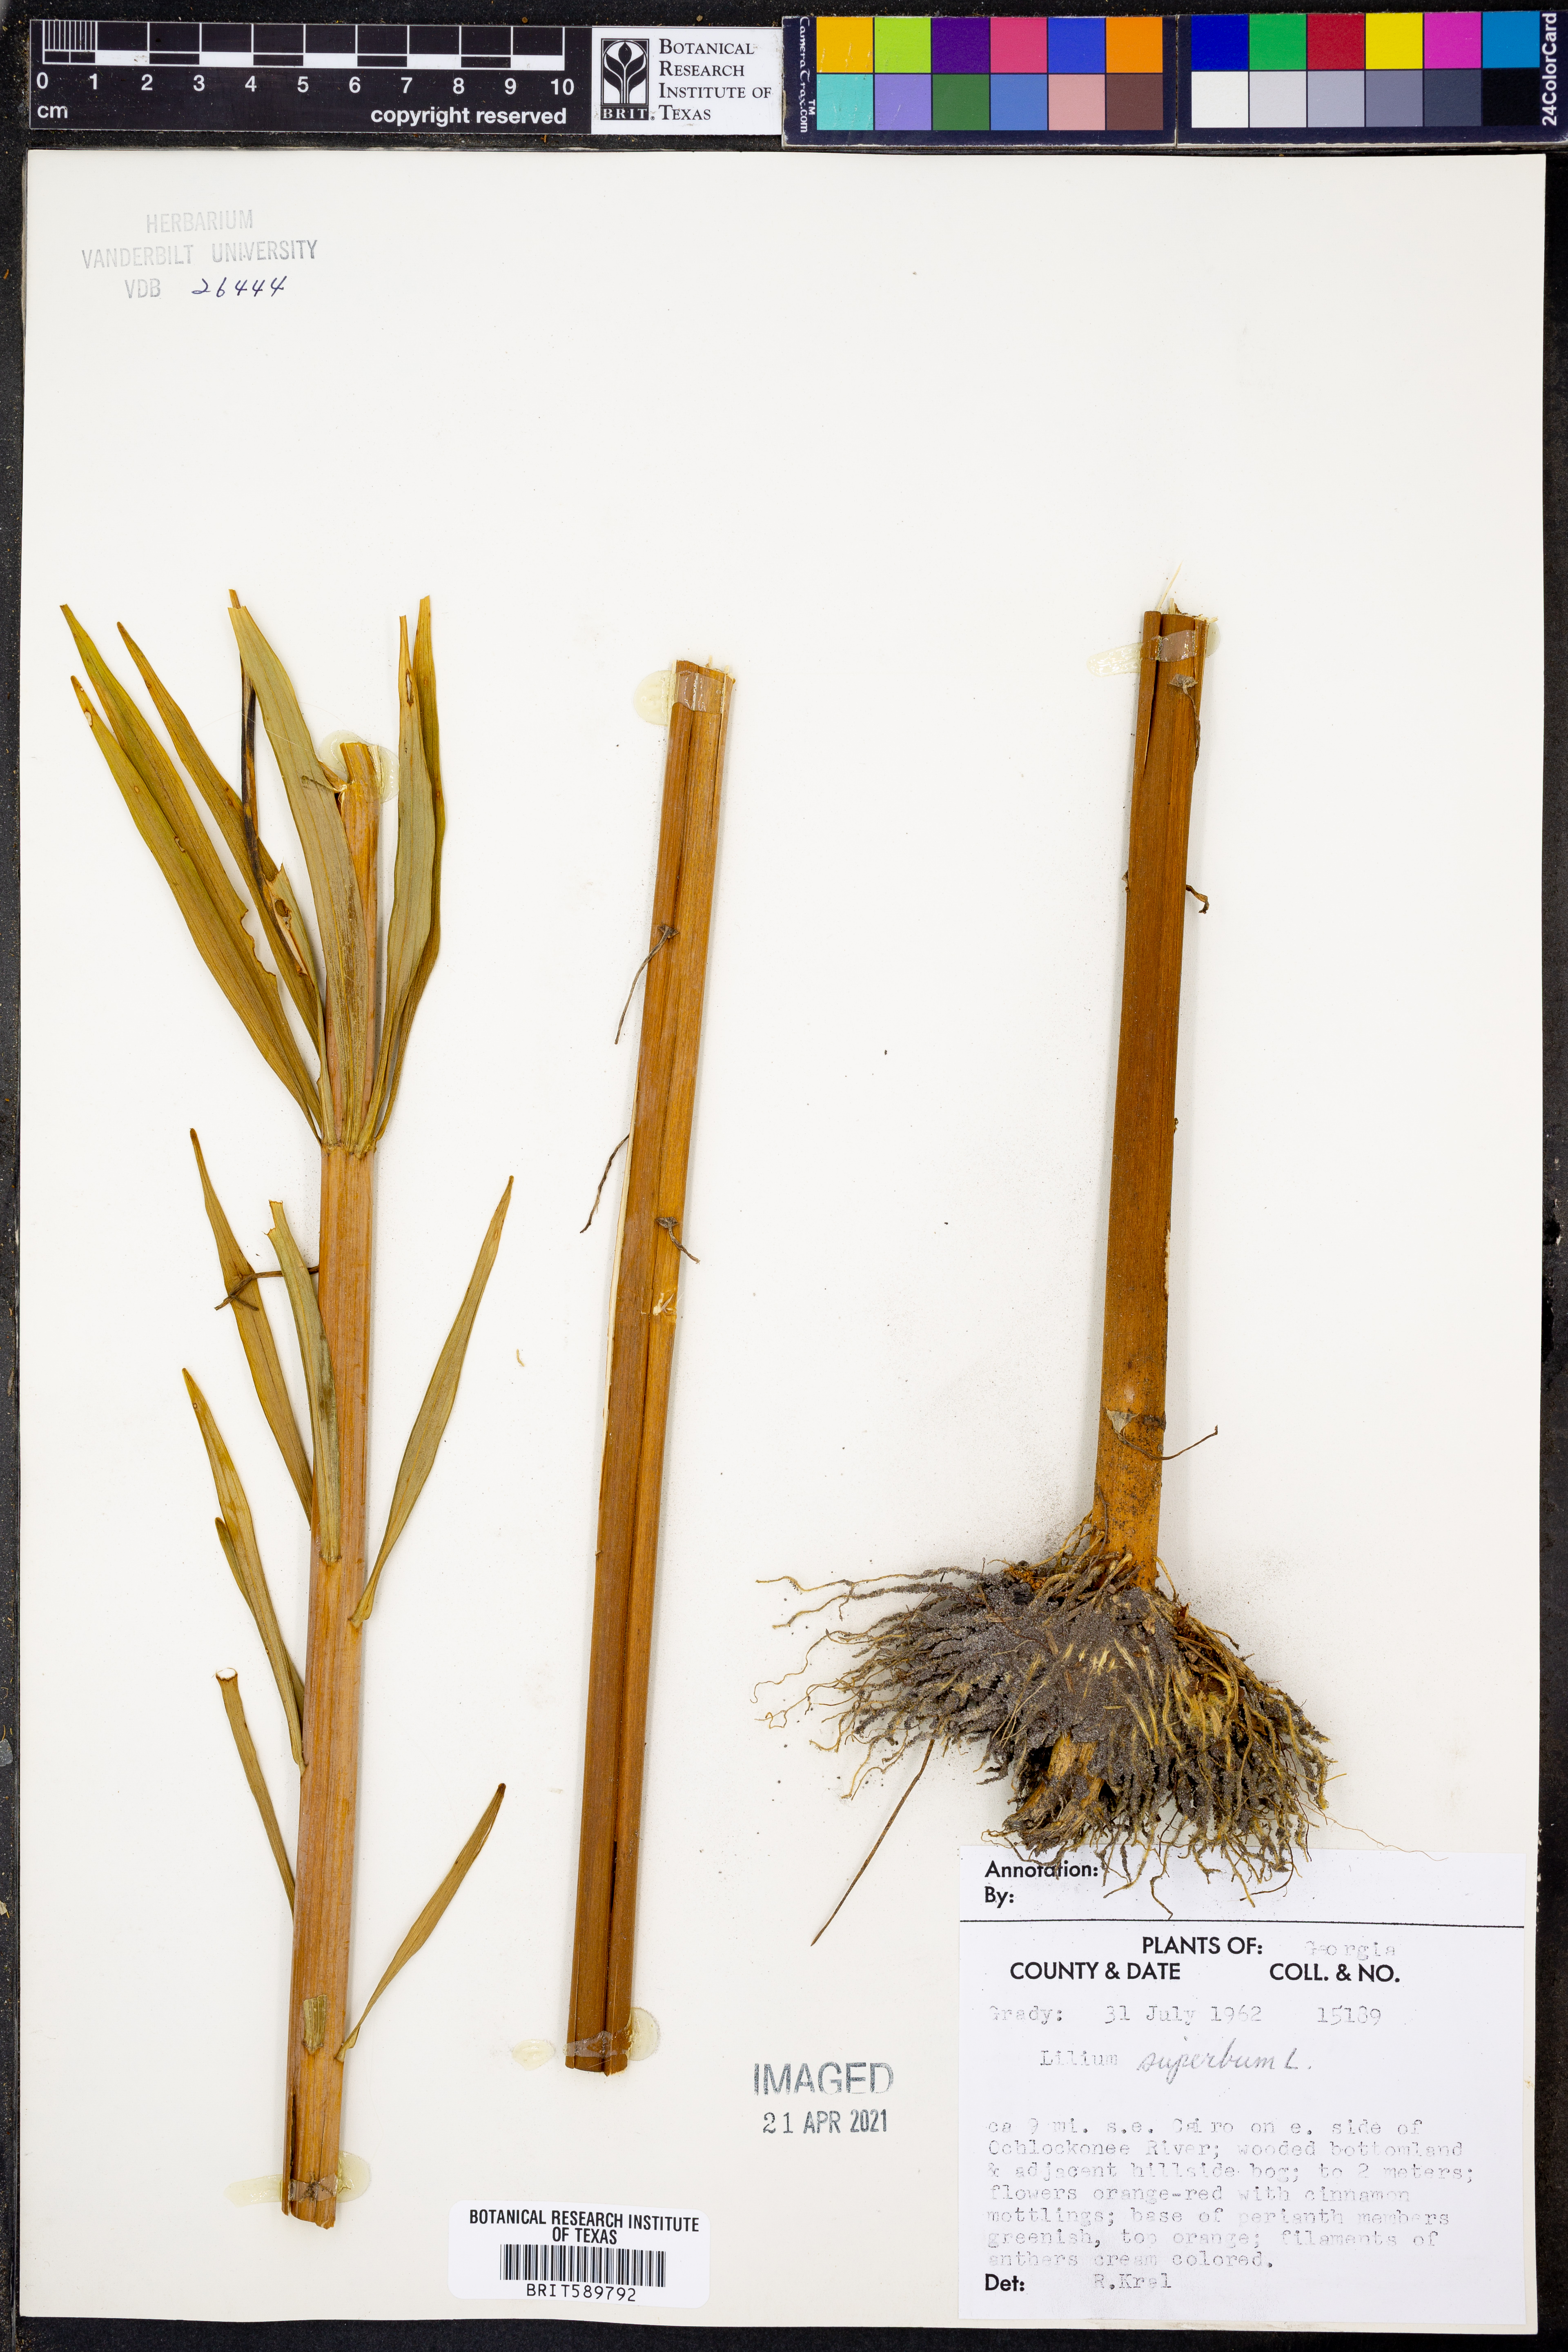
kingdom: Plantae
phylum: Tracheophyta
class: Liliopsida
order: Liliales
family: Liliaceae
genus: Lilium
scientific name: Lilium superbum
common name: American turk's-cap lily
